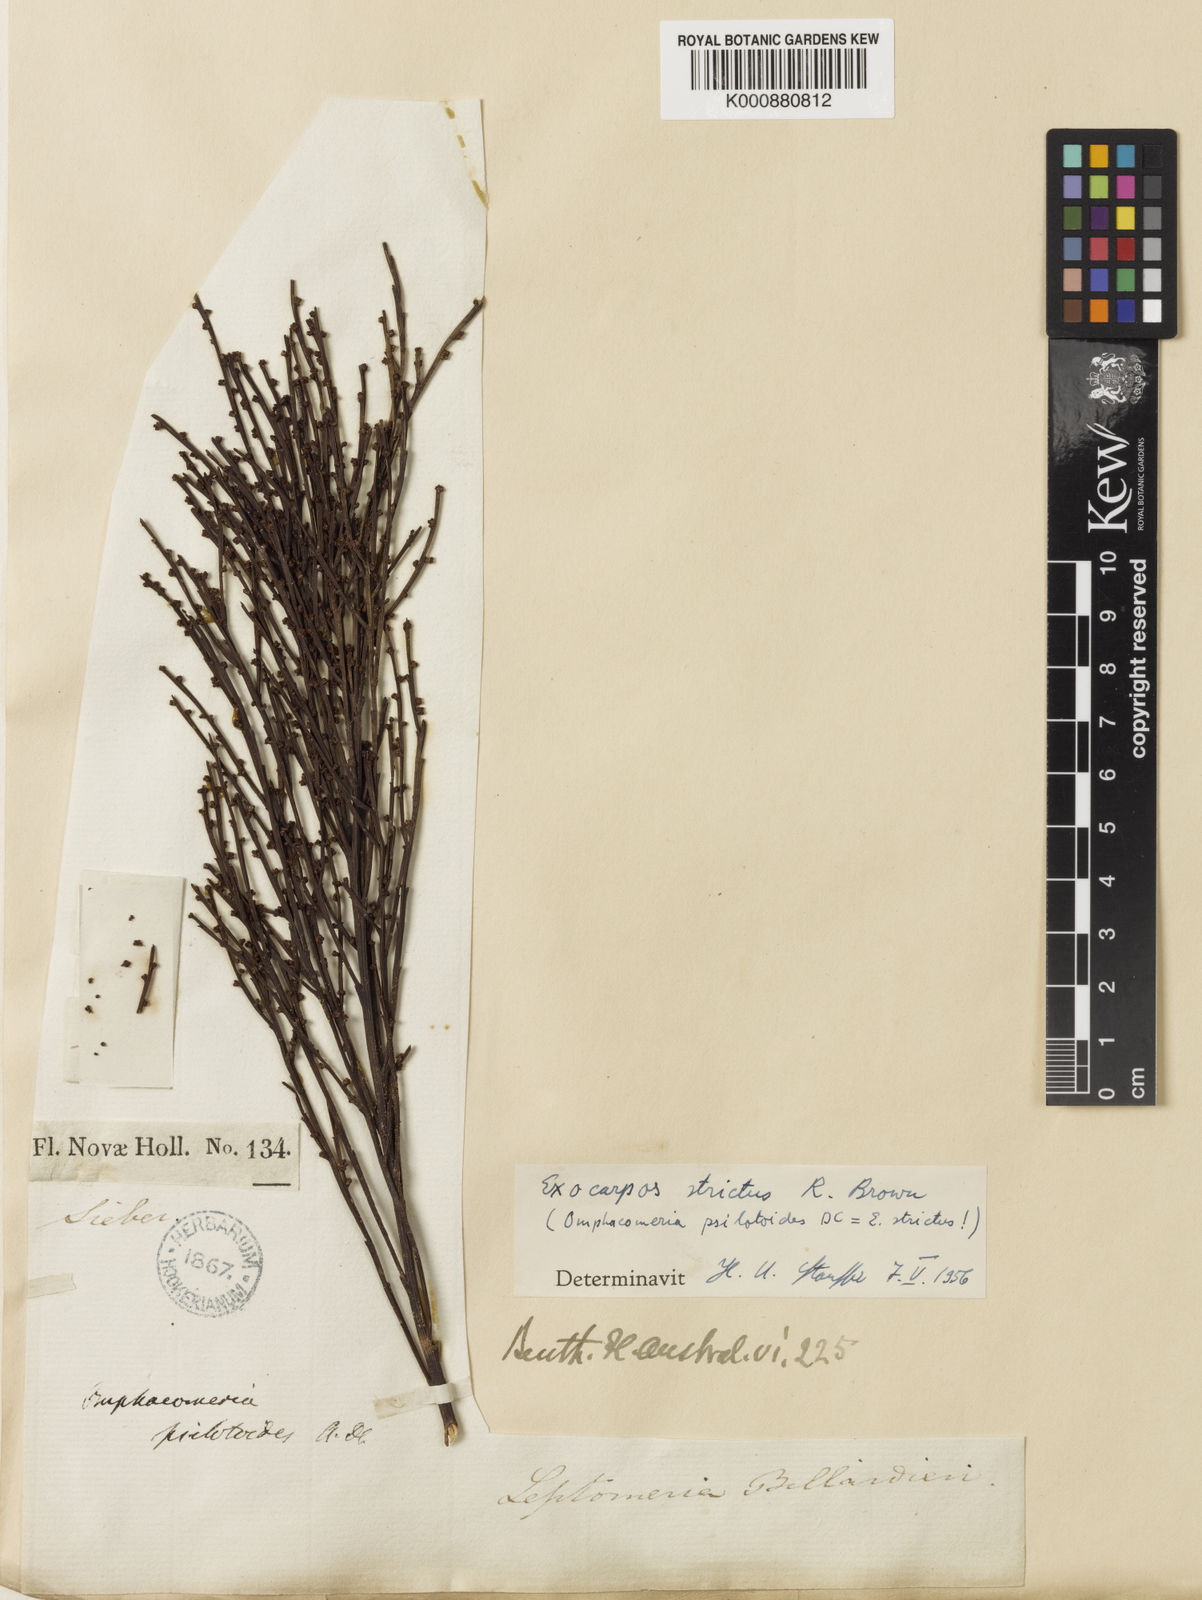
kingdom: Plantae
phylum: Tracheophyta
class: Magnoliopsida
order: Santalales
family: Santalaceae
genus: Exocarpos
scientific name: Exocarpos strictus
